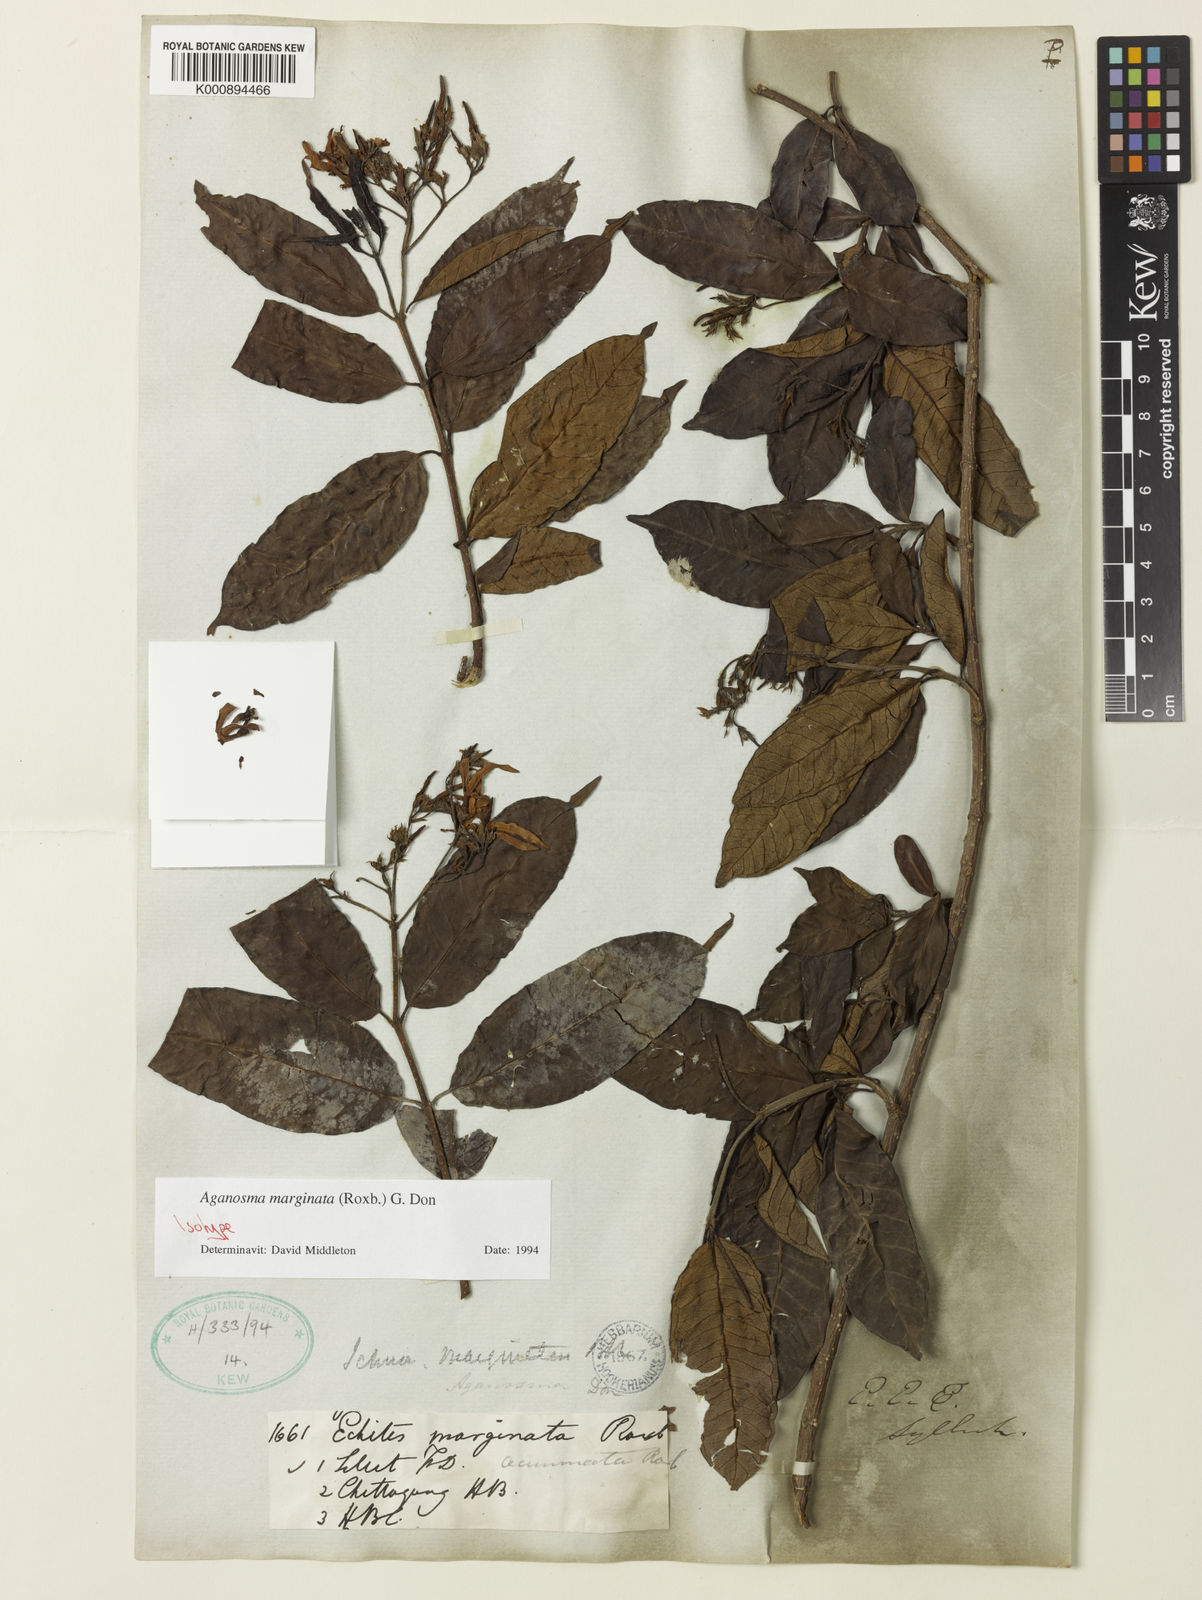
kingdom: Plantae
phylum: Tracheophyta
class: Magnoliopsida
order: Gentianales
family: Apocynaceae
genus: Amphineurion
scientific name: Amphineurion marginatum
